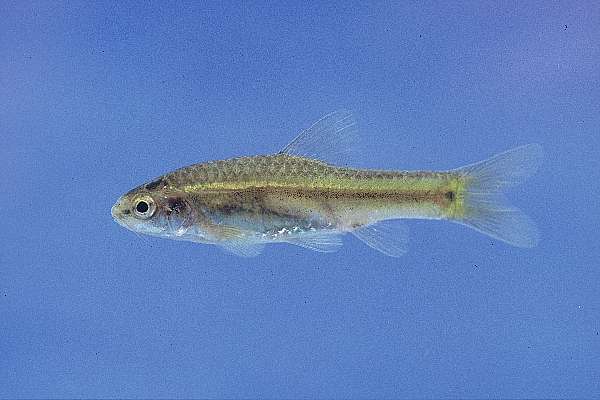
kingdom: Animalia
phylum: Chordata
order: Cypriniformes
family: Cyprinidae
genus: Barbus
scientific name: Barbus
